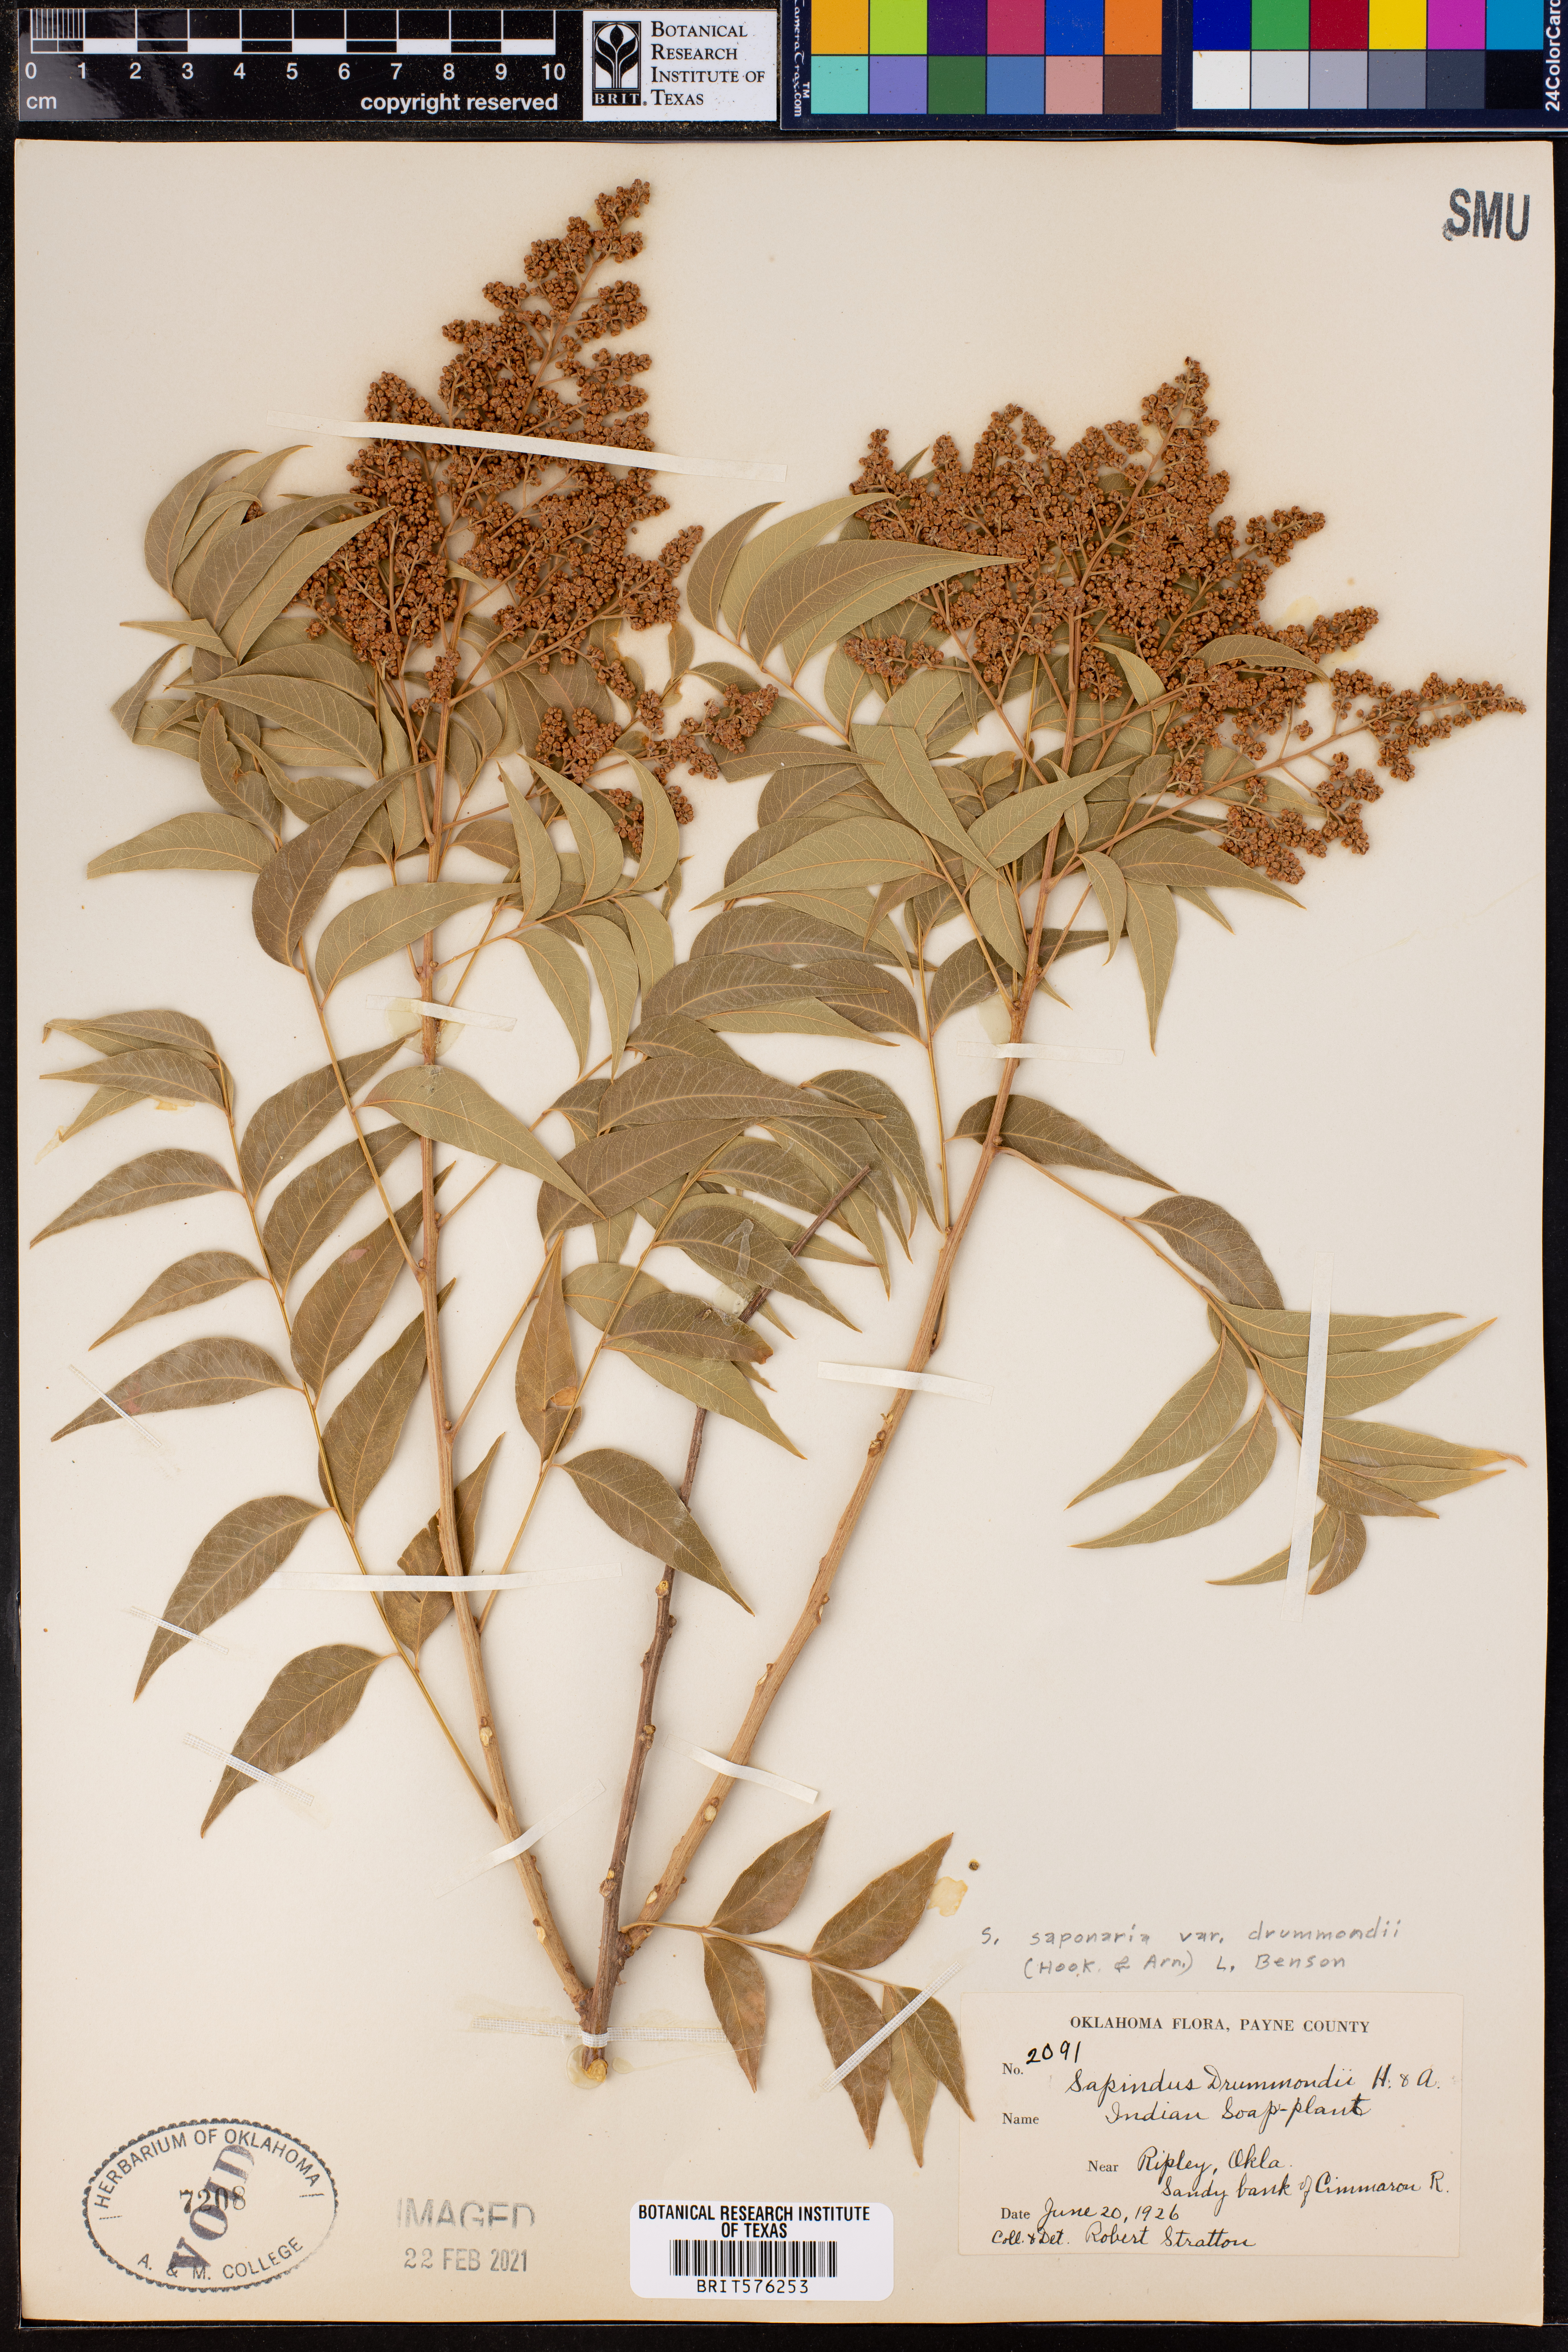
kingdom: Plantae
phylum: Tracheophyta
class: Magnoliopsida
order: Sapindales
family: Sapindaceae
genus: Sapindus
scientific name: Sapindus drummondii
